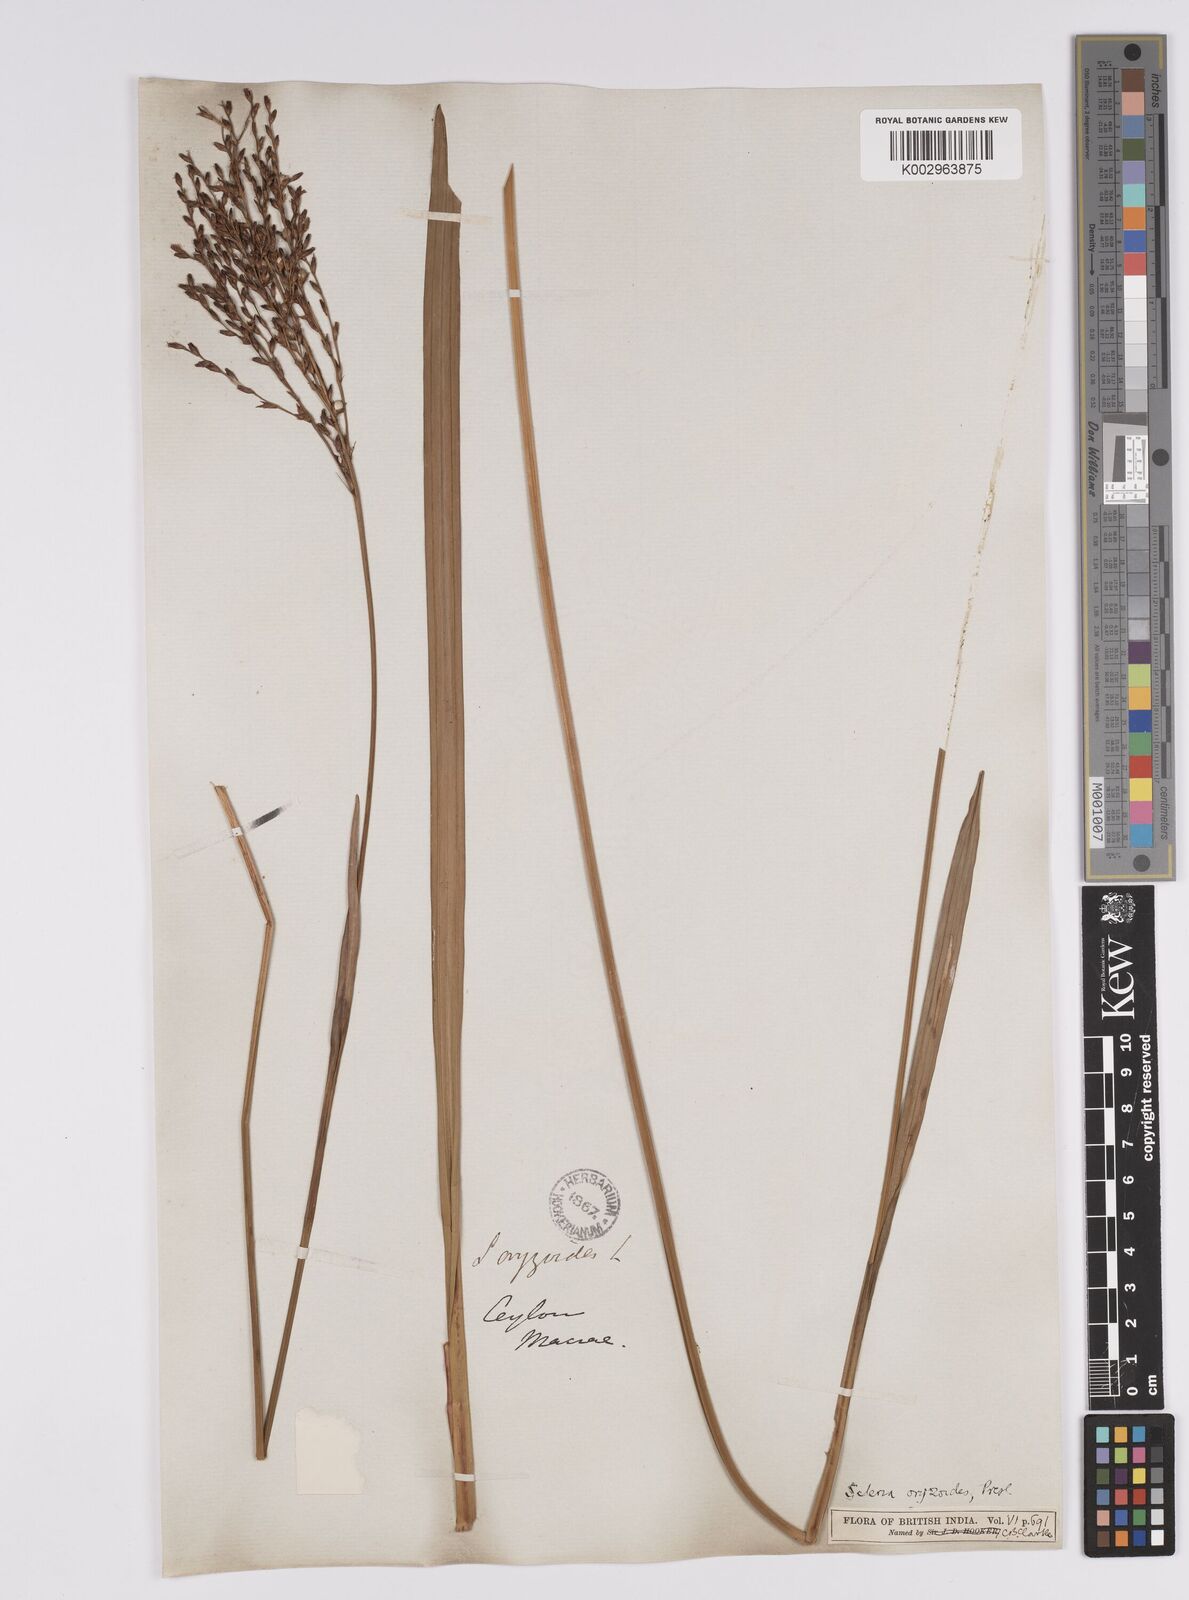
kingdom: Plantae
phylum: Tracheophyta
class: Liliopsida
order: Poales
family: Cyperaceae
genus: Scleria
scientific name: Scleria poiformis
